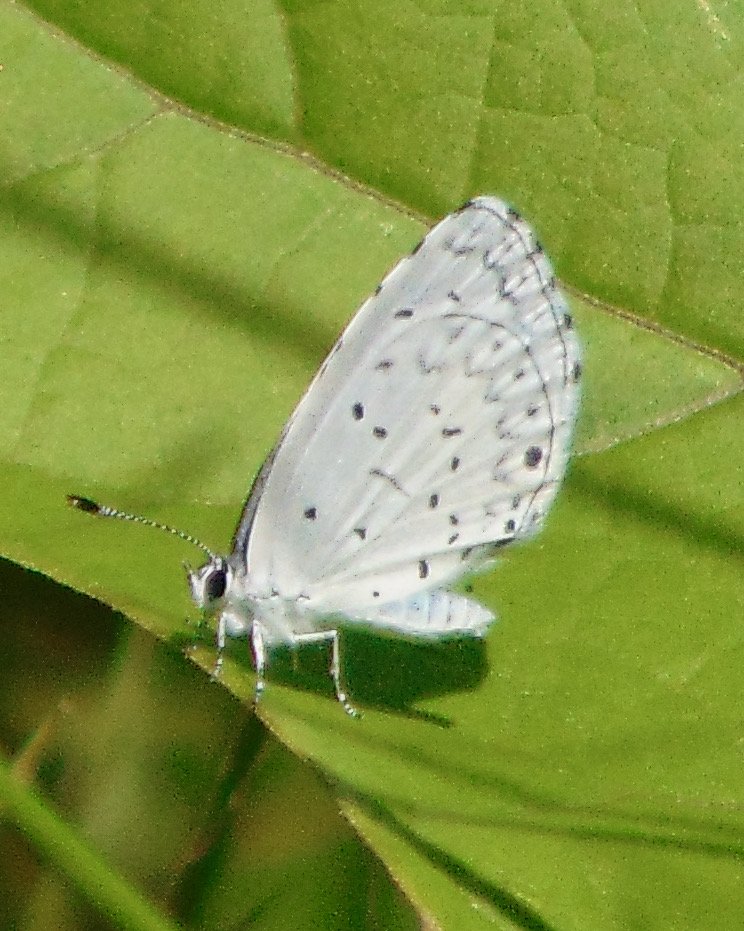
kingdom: Animalia
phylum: Arthropoda
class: Insecta
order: Lepidoptera
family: Lycaenidae
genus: Cyaniris
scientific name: Cyaniris neglecta
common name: Summer Azure
